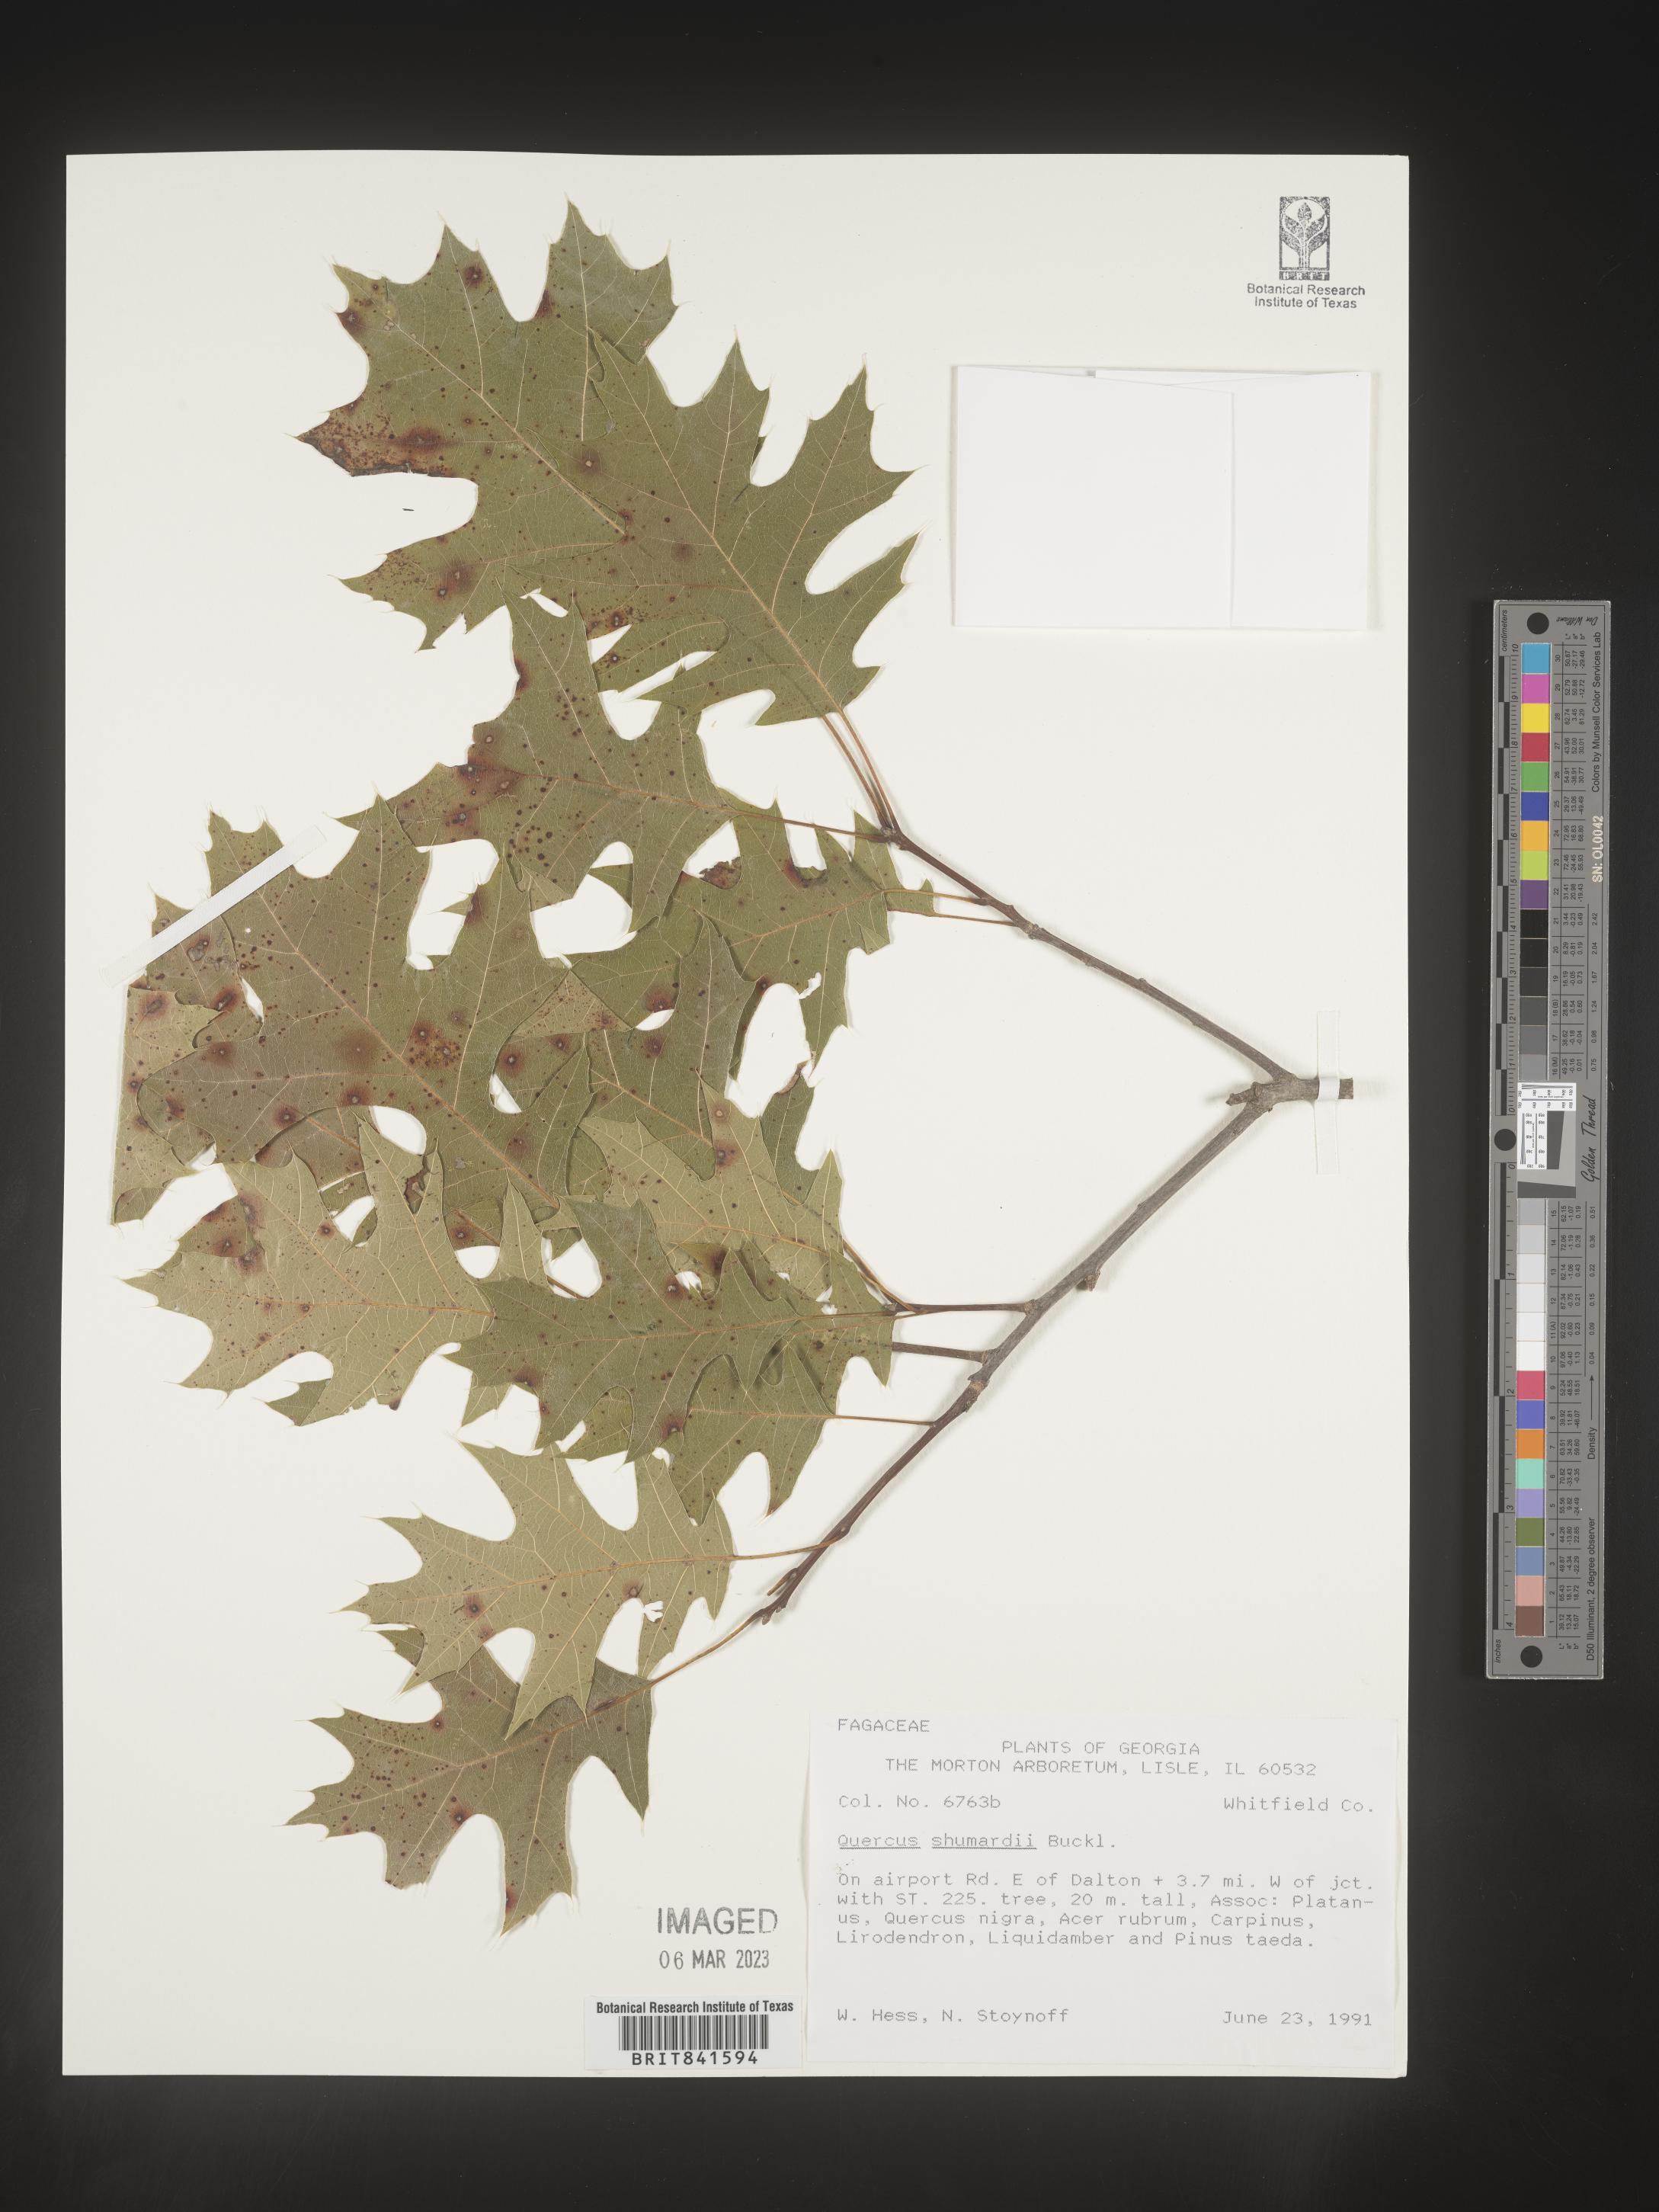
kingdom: Plantae
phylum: Tracheophyta
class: Magnoliopsida
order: Fagales
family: Fagaceae
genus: Quercus
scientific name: Quercus shumardii
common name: Shumard oak
